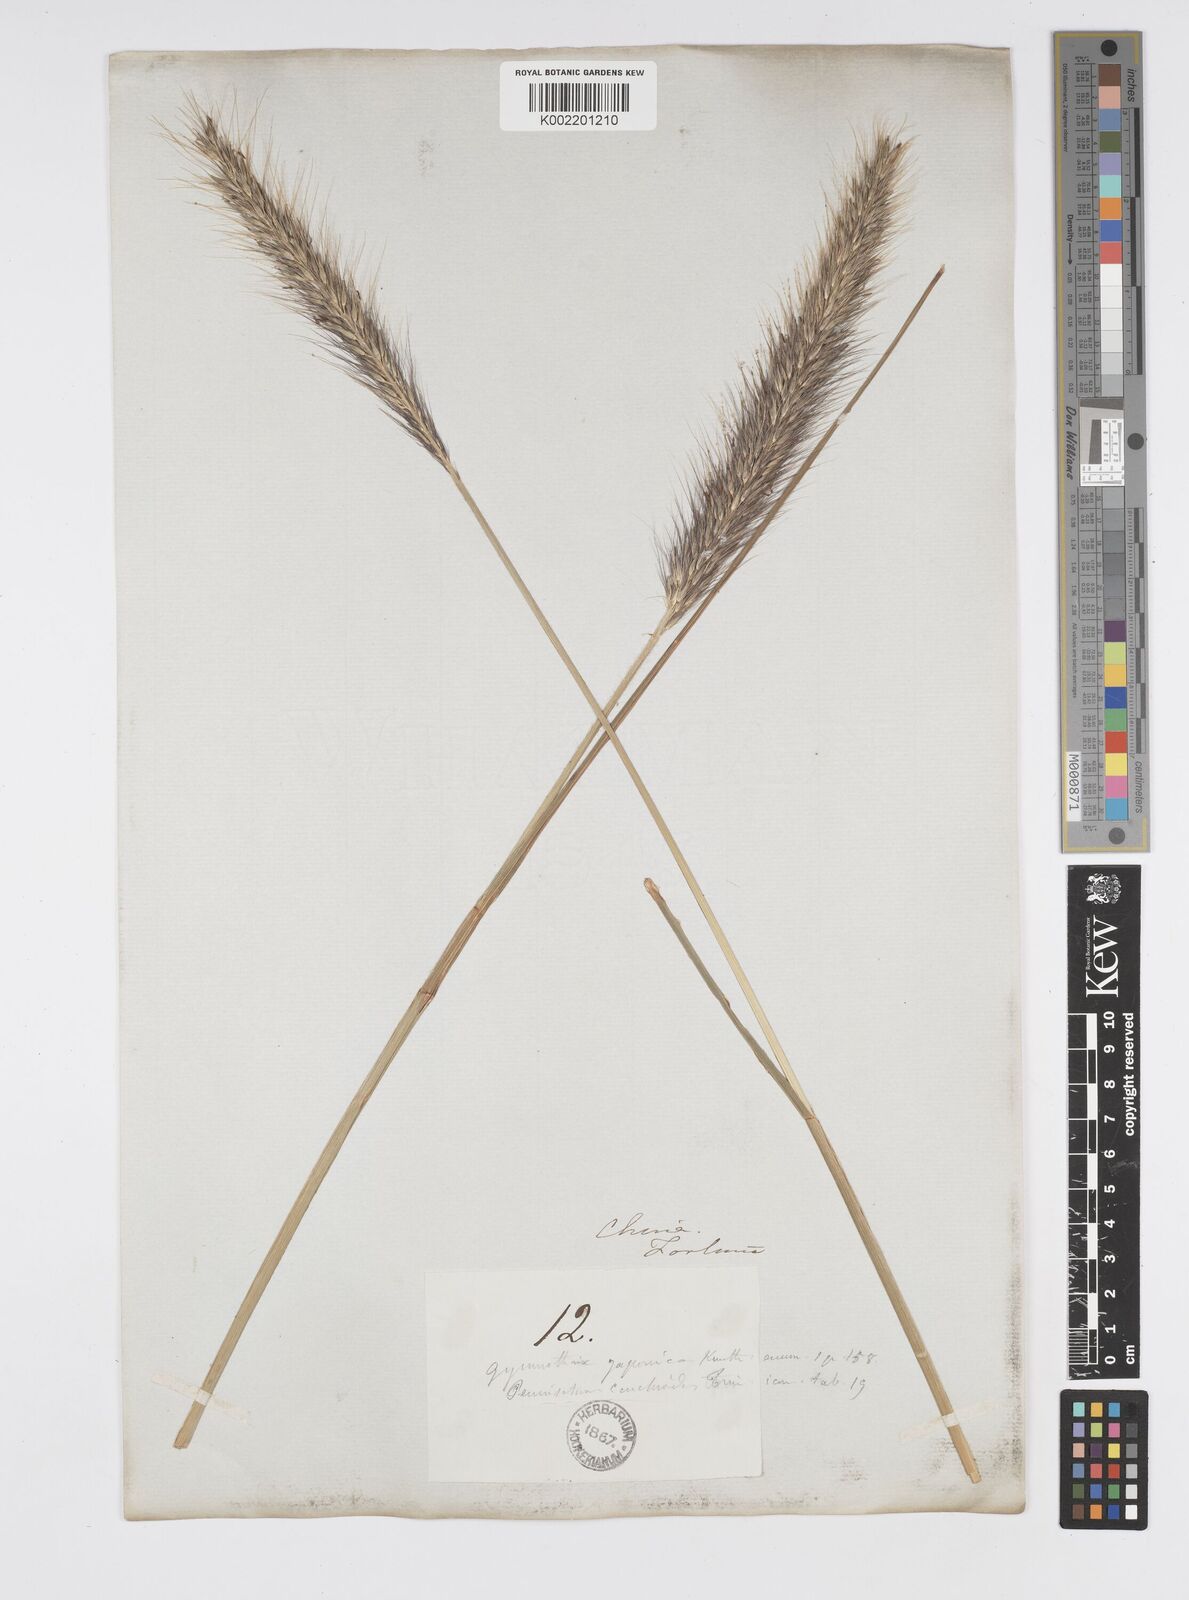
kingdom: Plantae
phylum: Tracheophyta
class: Liliopsida
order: Poales
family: Poaceae
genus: Cenchrus
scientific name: Cenchrus alopecuroides
